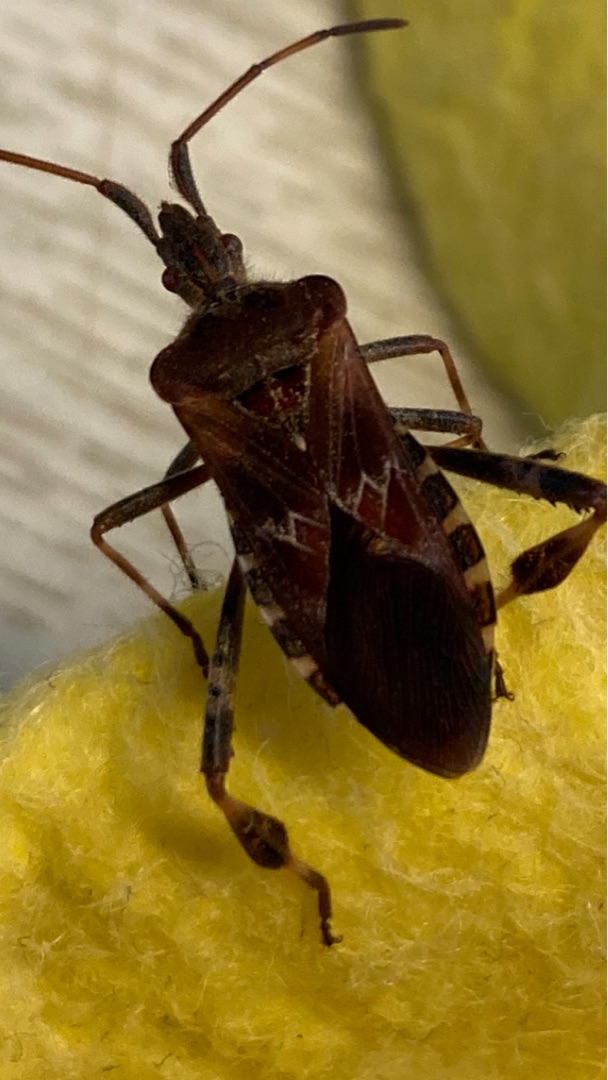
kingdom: Animalia
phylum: Arthropoda
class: Insecta
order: Hemiptera
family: Coreidae
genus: Leptoglossus
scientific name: Leptoglossus occidentalis
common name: Amerikansk fyrretæge
